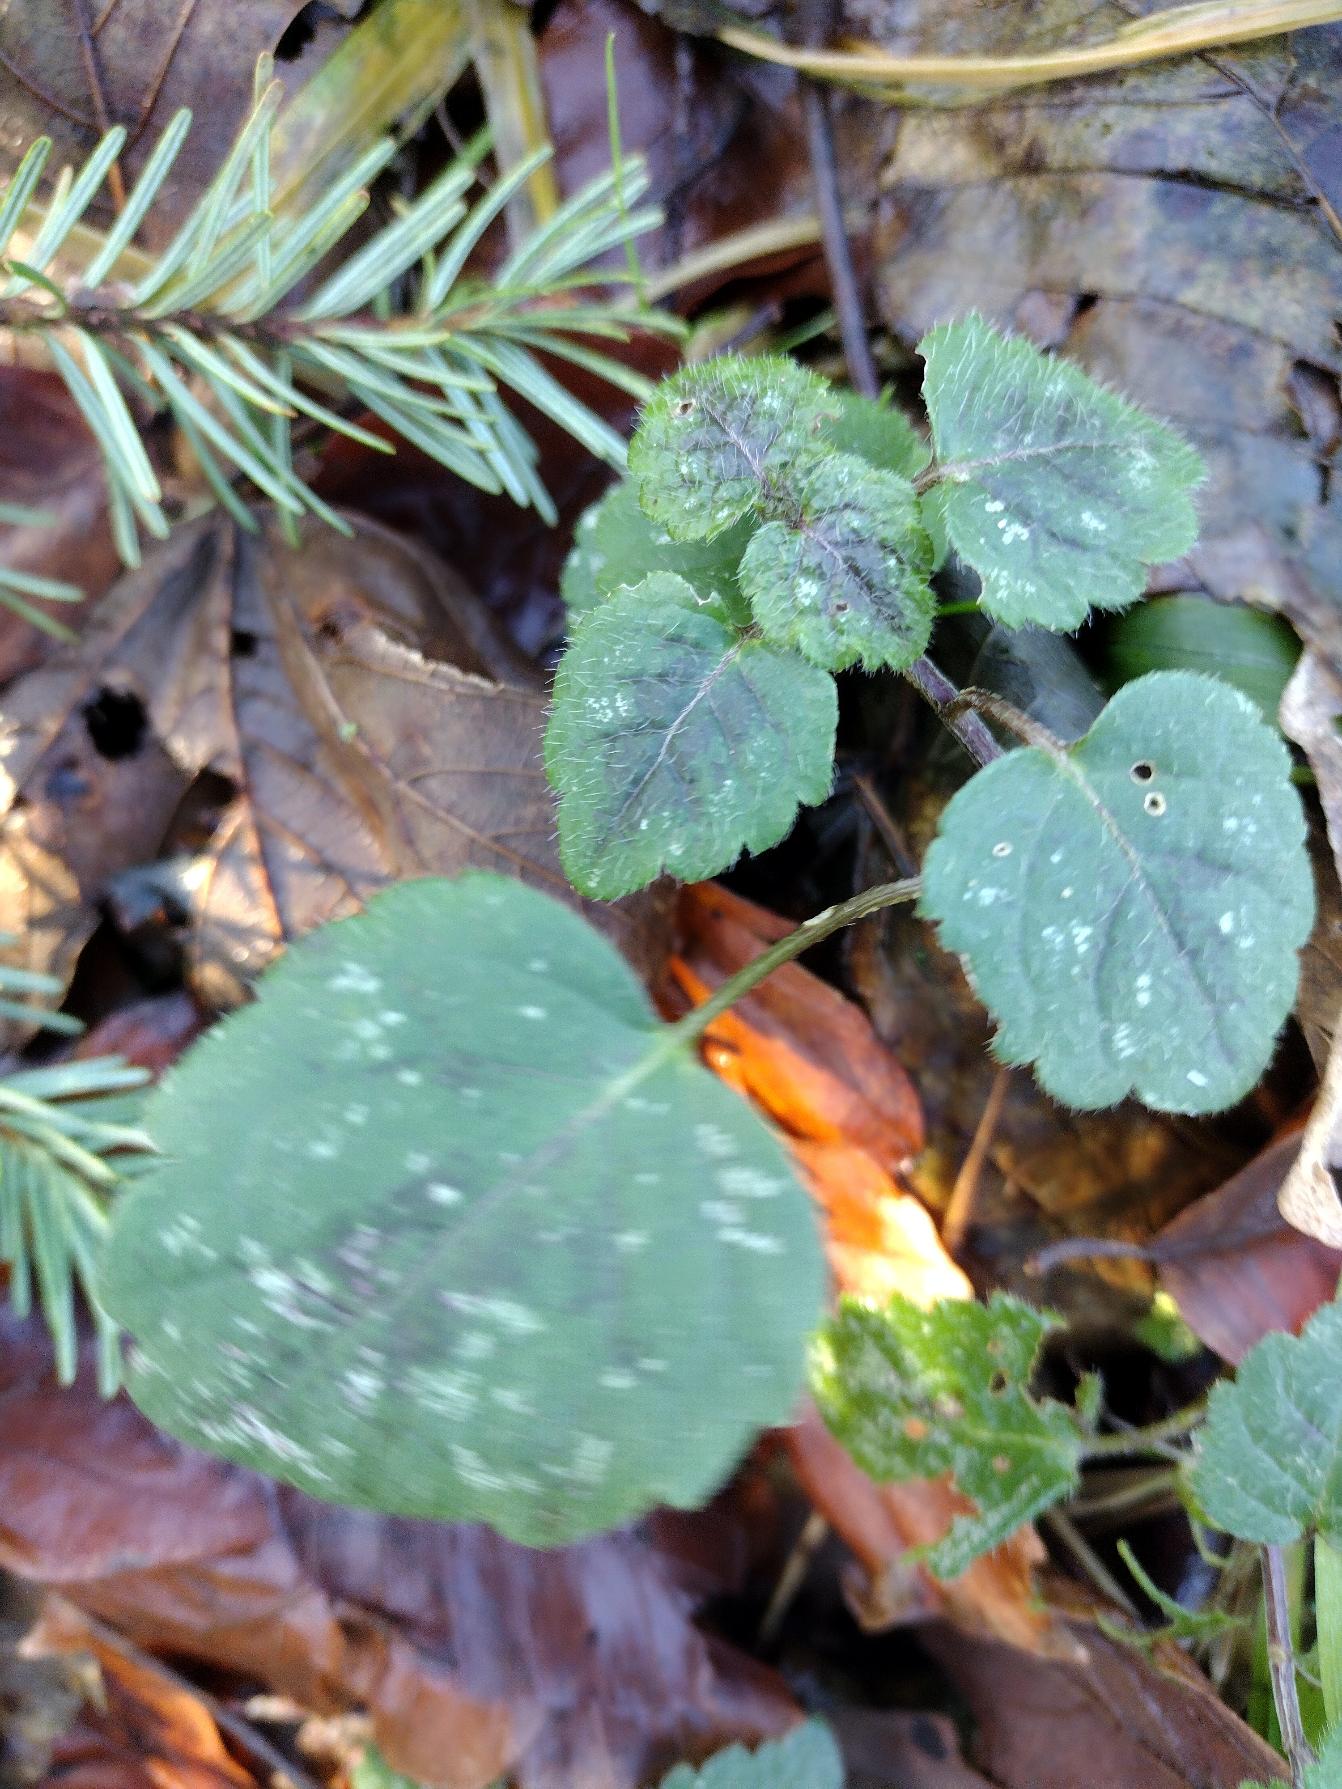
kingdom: Plantae
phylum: Tracheophyta
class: Magnoliopsida
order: Lamiales
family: Lamiaceae
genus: Lamium
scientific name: Lamium galeobdolon
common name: Guldnælde
